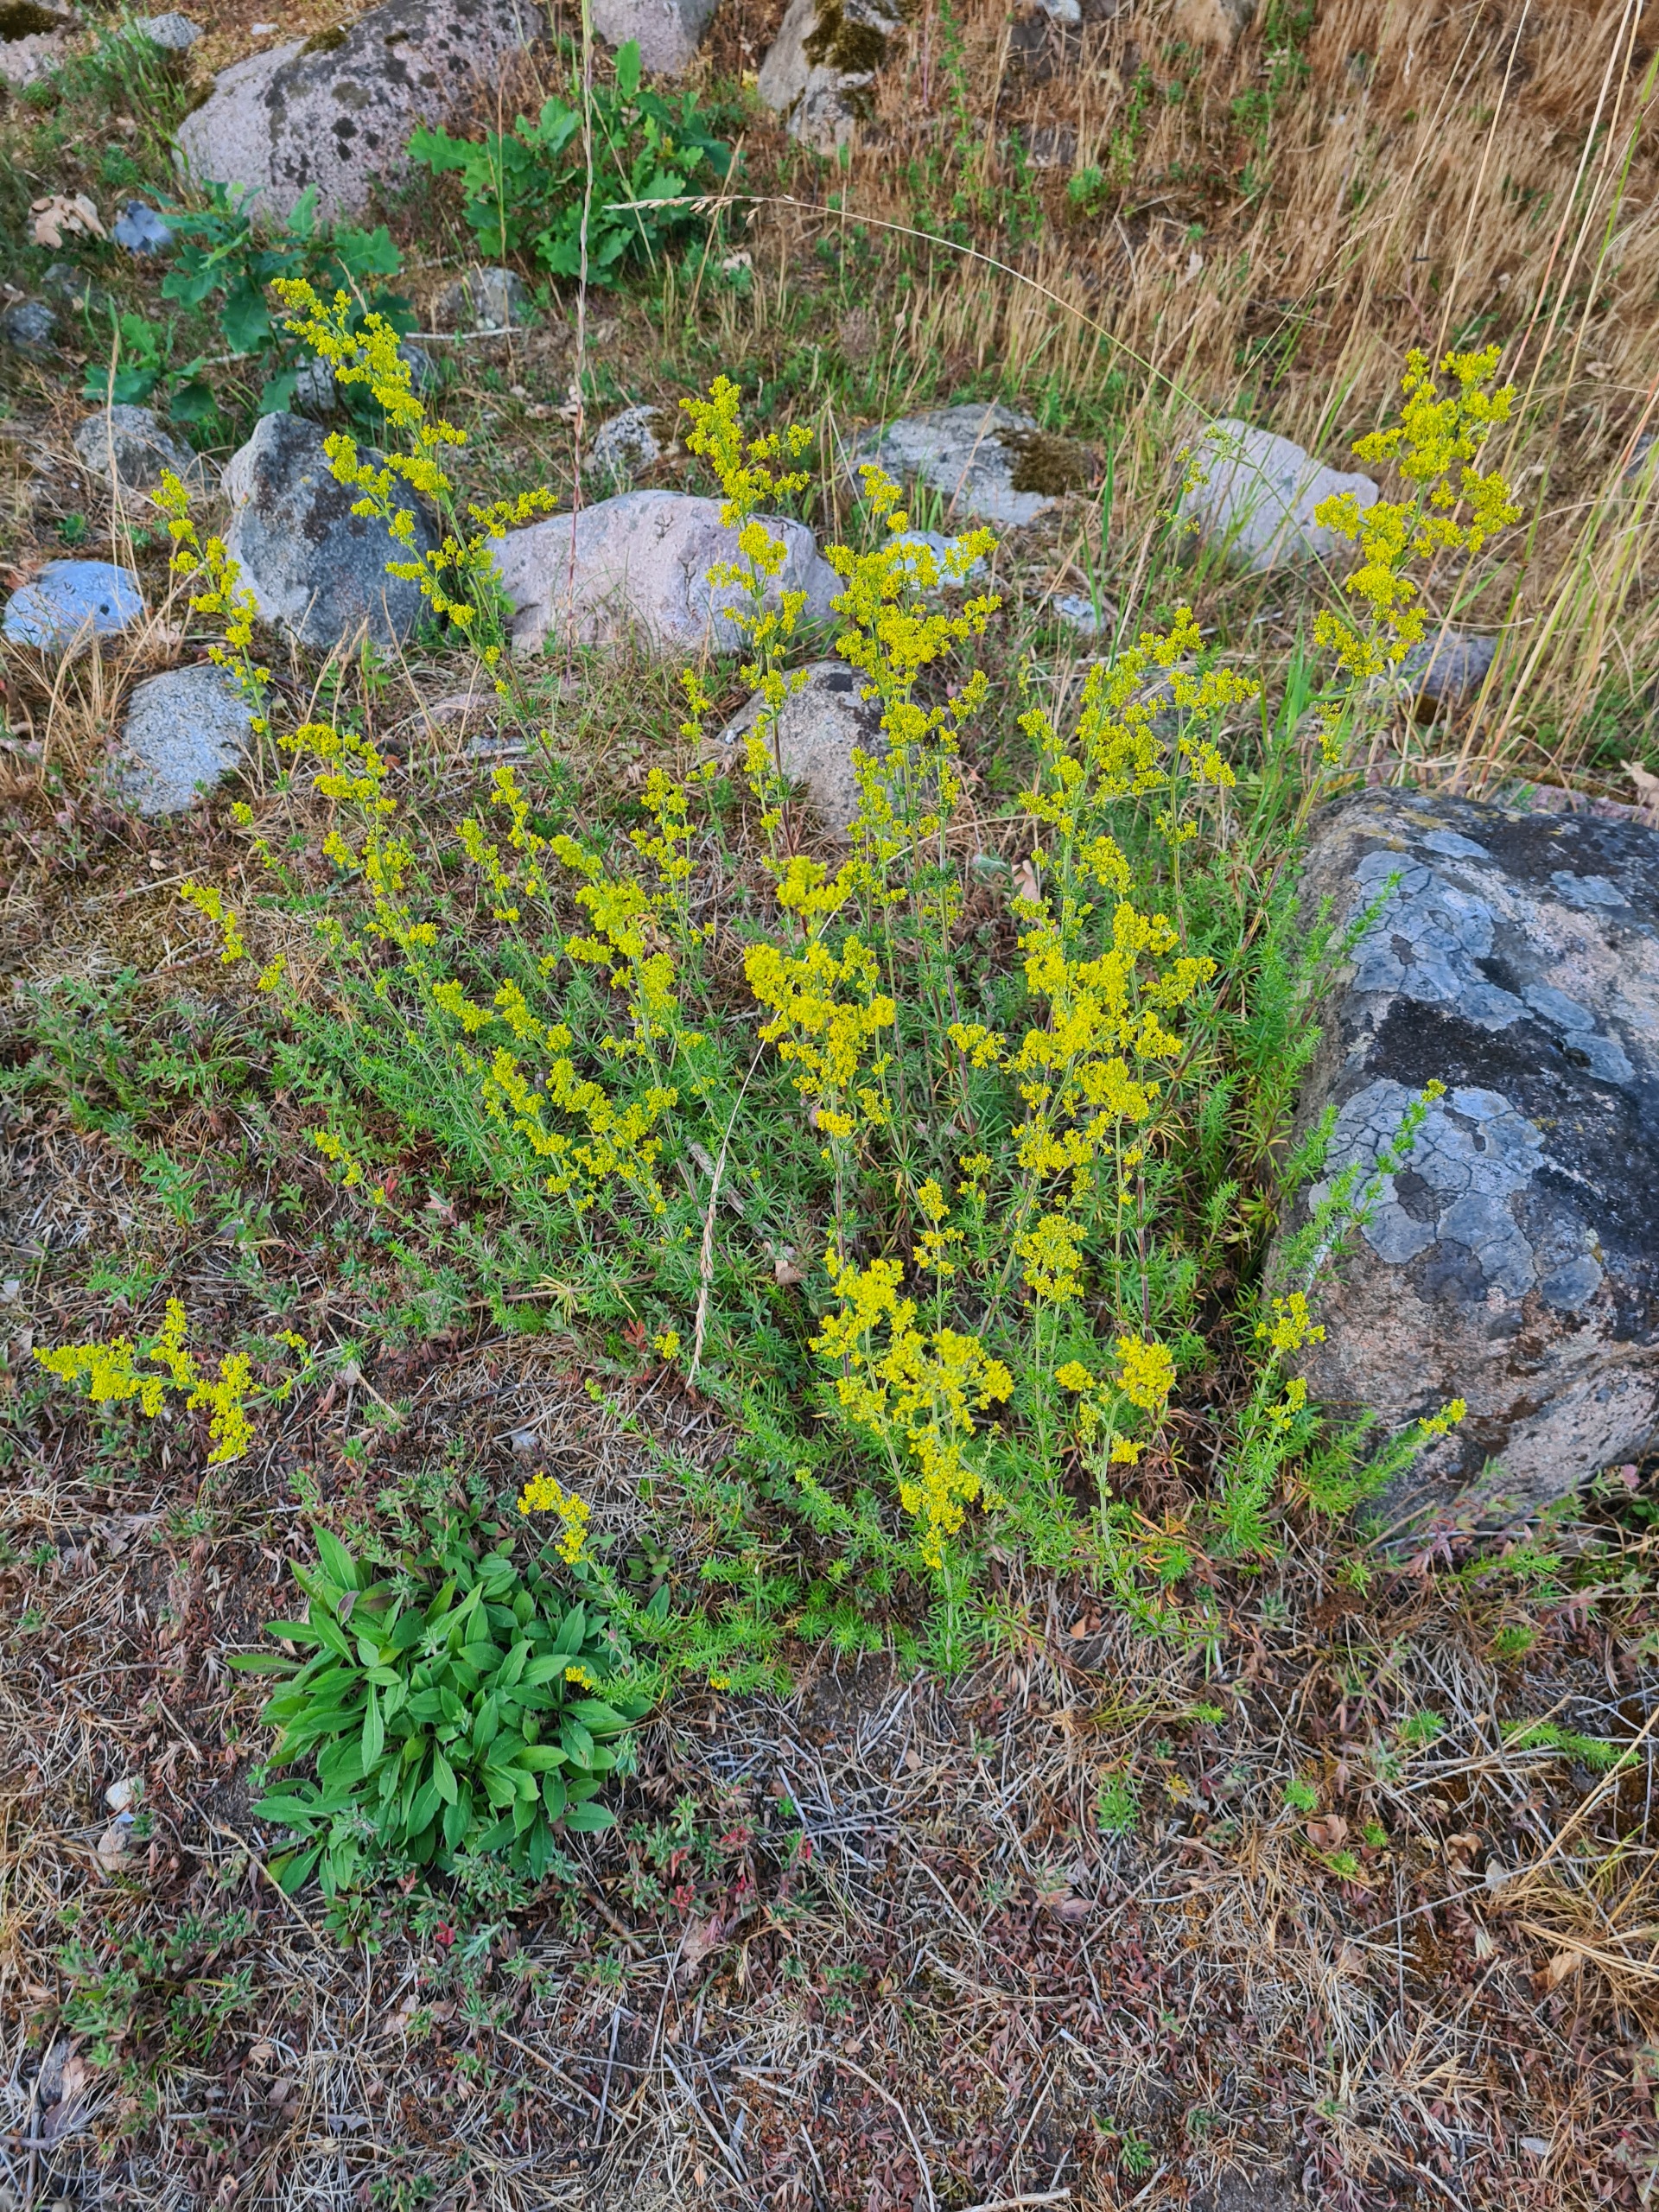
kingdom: Plantae
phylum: Tracheophyta
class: Magnoliopsida
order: Gentianales
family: Rubiaceae
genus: Galium
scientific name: Galium verum
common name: Gul snerre
